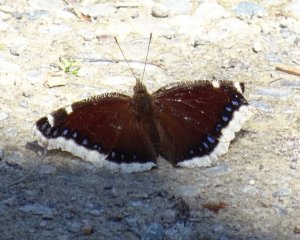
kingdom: Animalia
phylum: Arthropoda
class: Insecta
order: Lepidoptera
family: Nymphalidae
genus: Nymphalis
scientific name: Nymphalis antiopa
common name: Mourning Cloak
